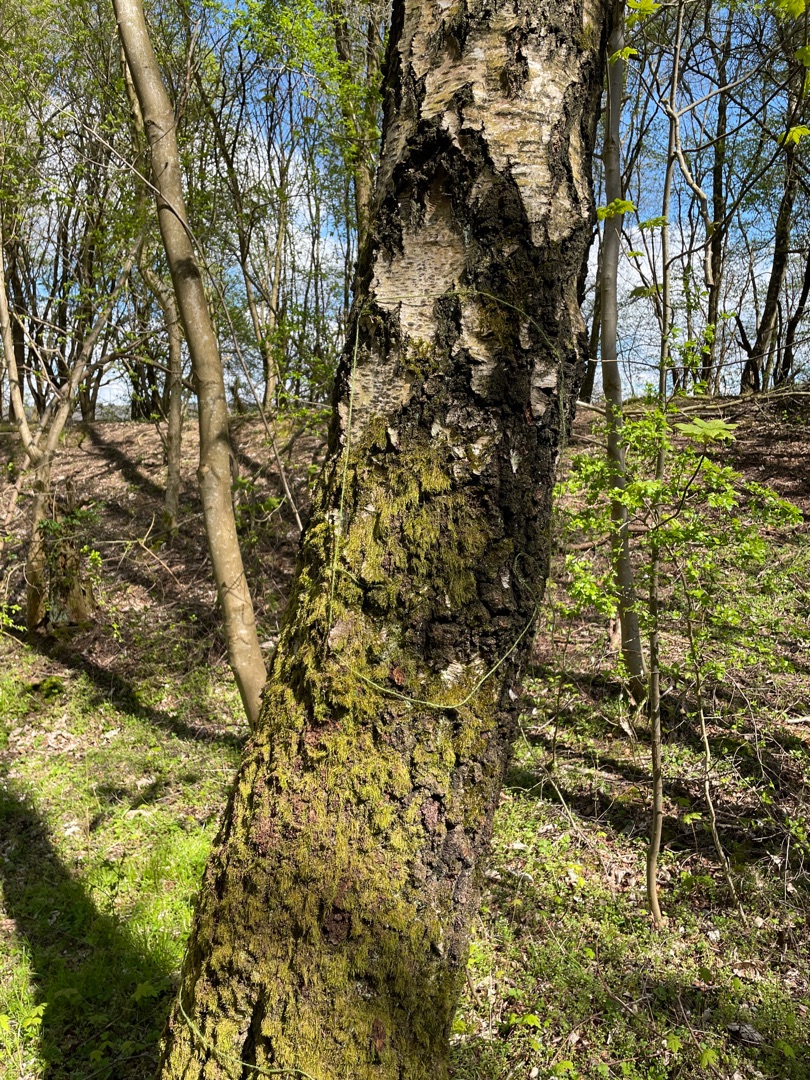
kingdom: Plantae
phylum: Bryophyta
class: Bryopsida
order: Hypnales
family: Hypnaceae
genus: Hypnum
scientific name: Hypnum
